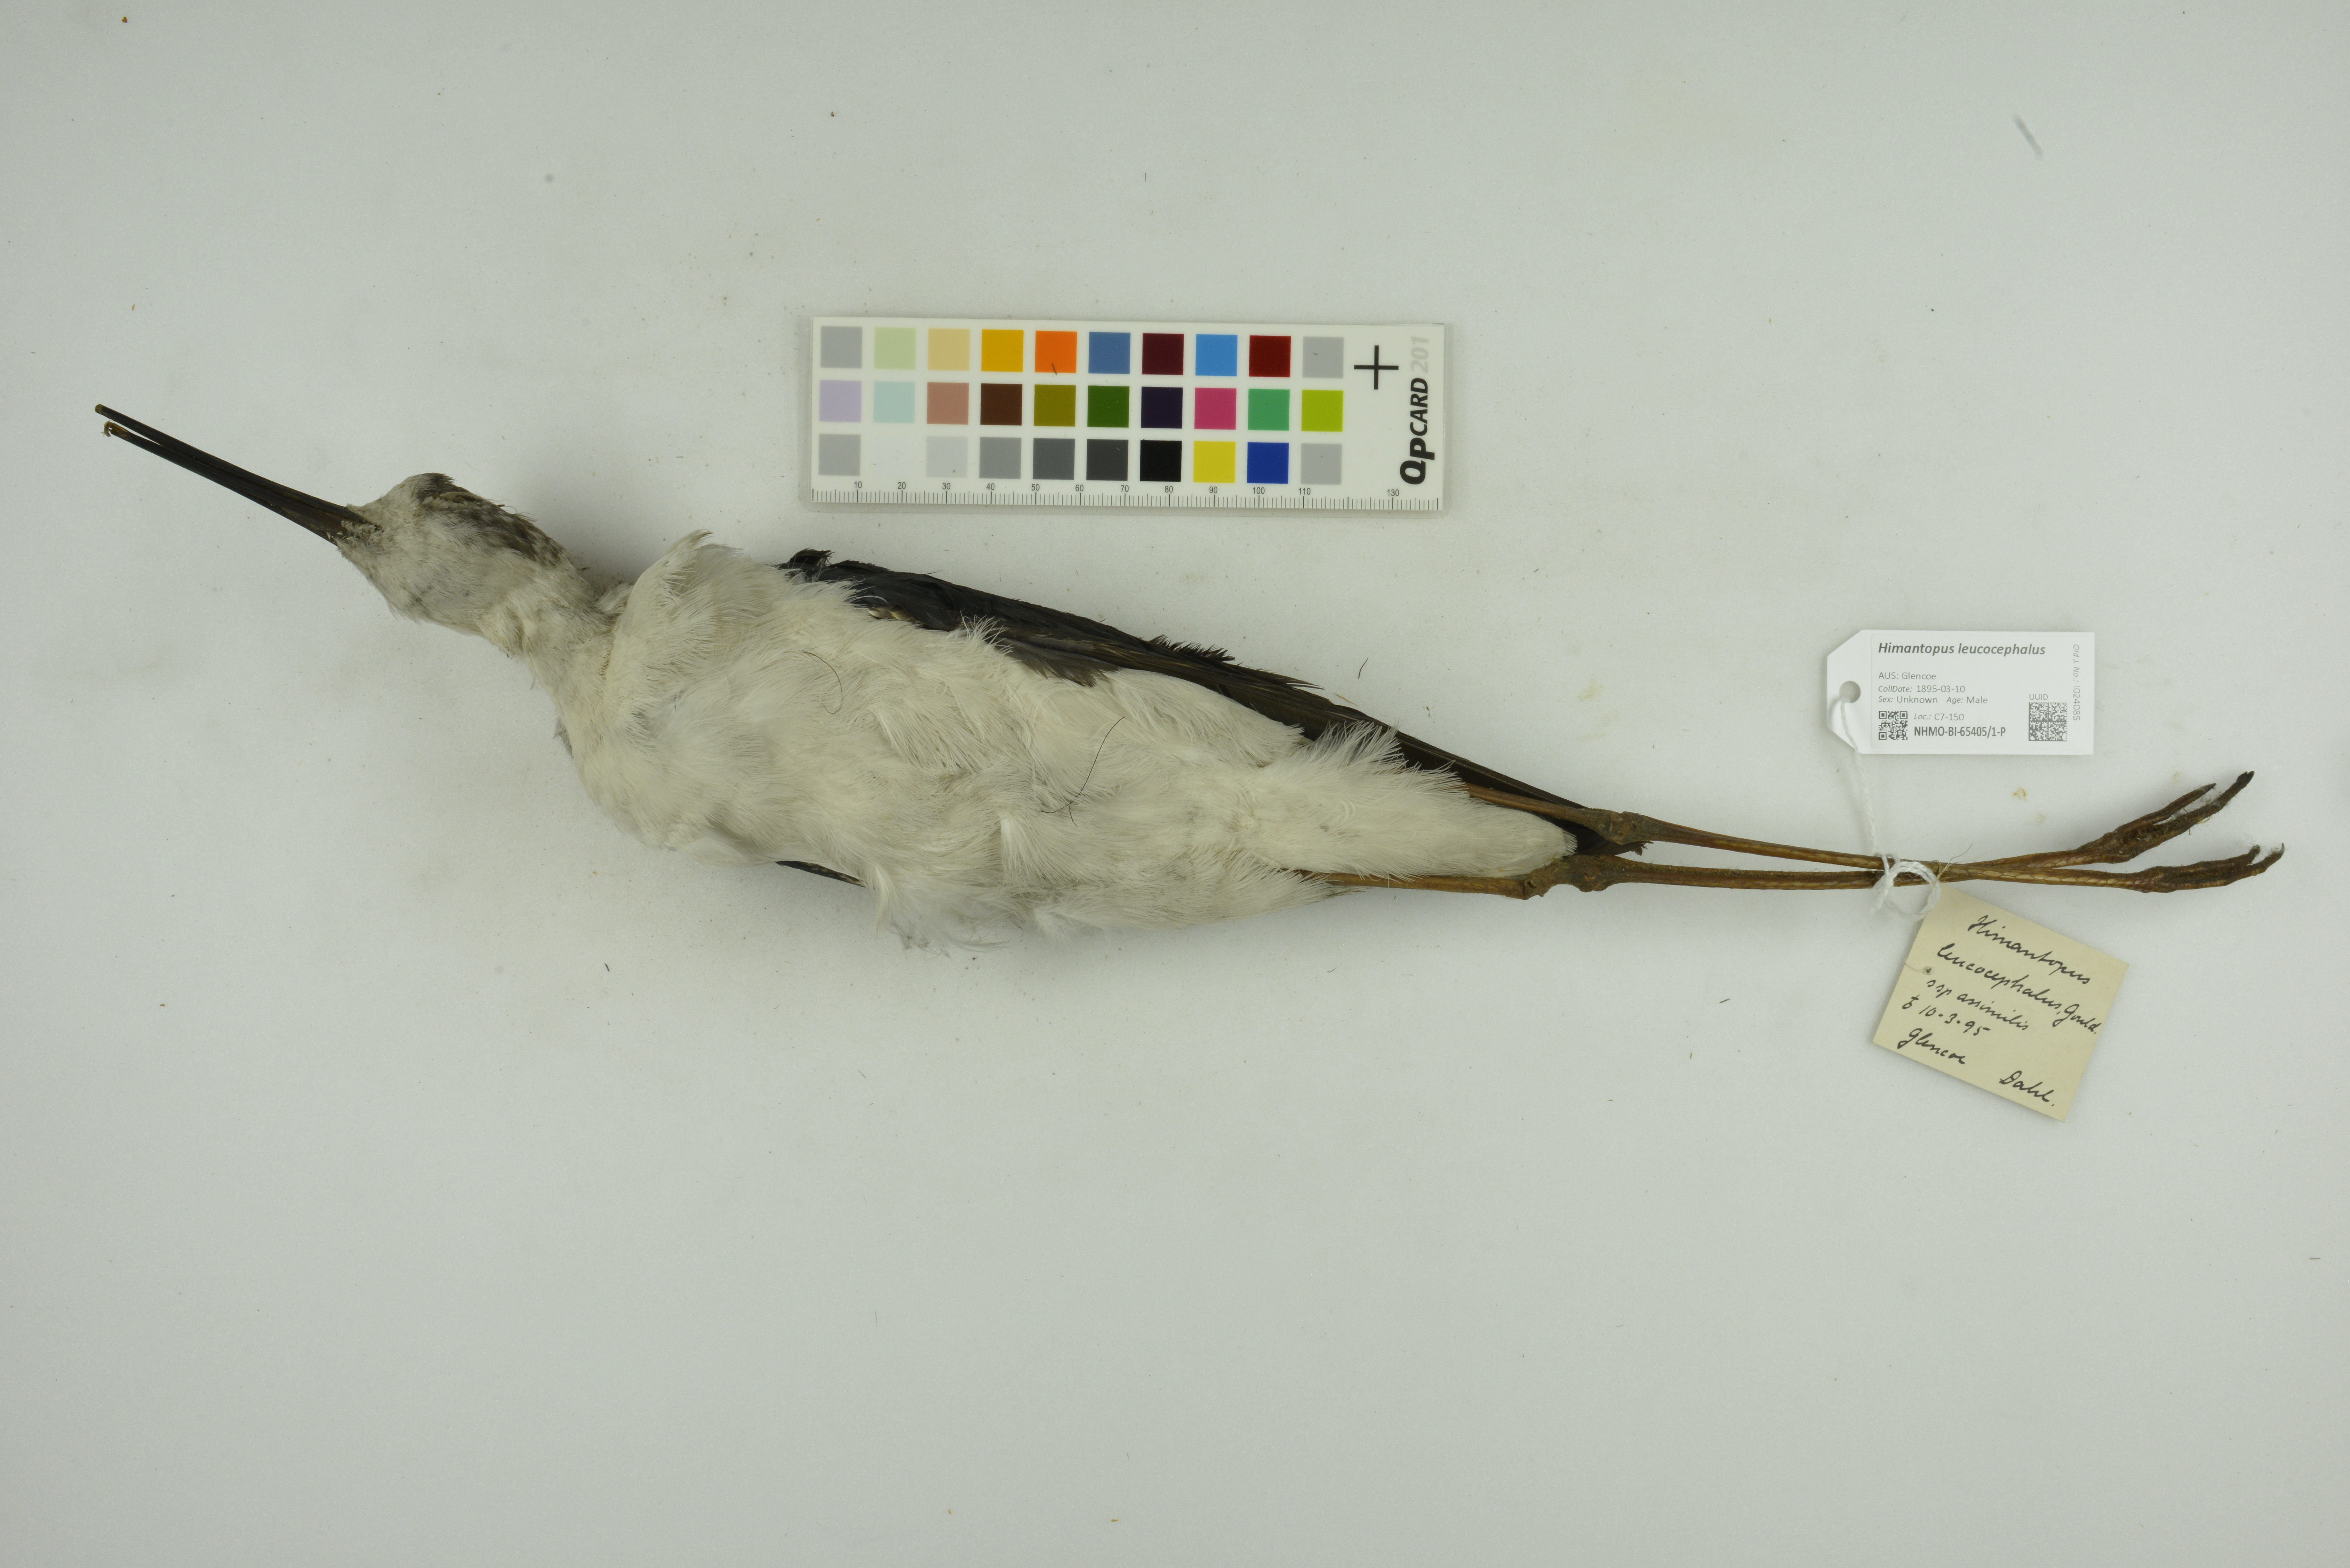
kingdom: Animalia
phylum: Chordata
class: Aves
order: Charadriiformes
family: Recurvirostridae
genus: Himantopus
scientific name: Himantopus leucocephalus
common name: White-headed stilt
